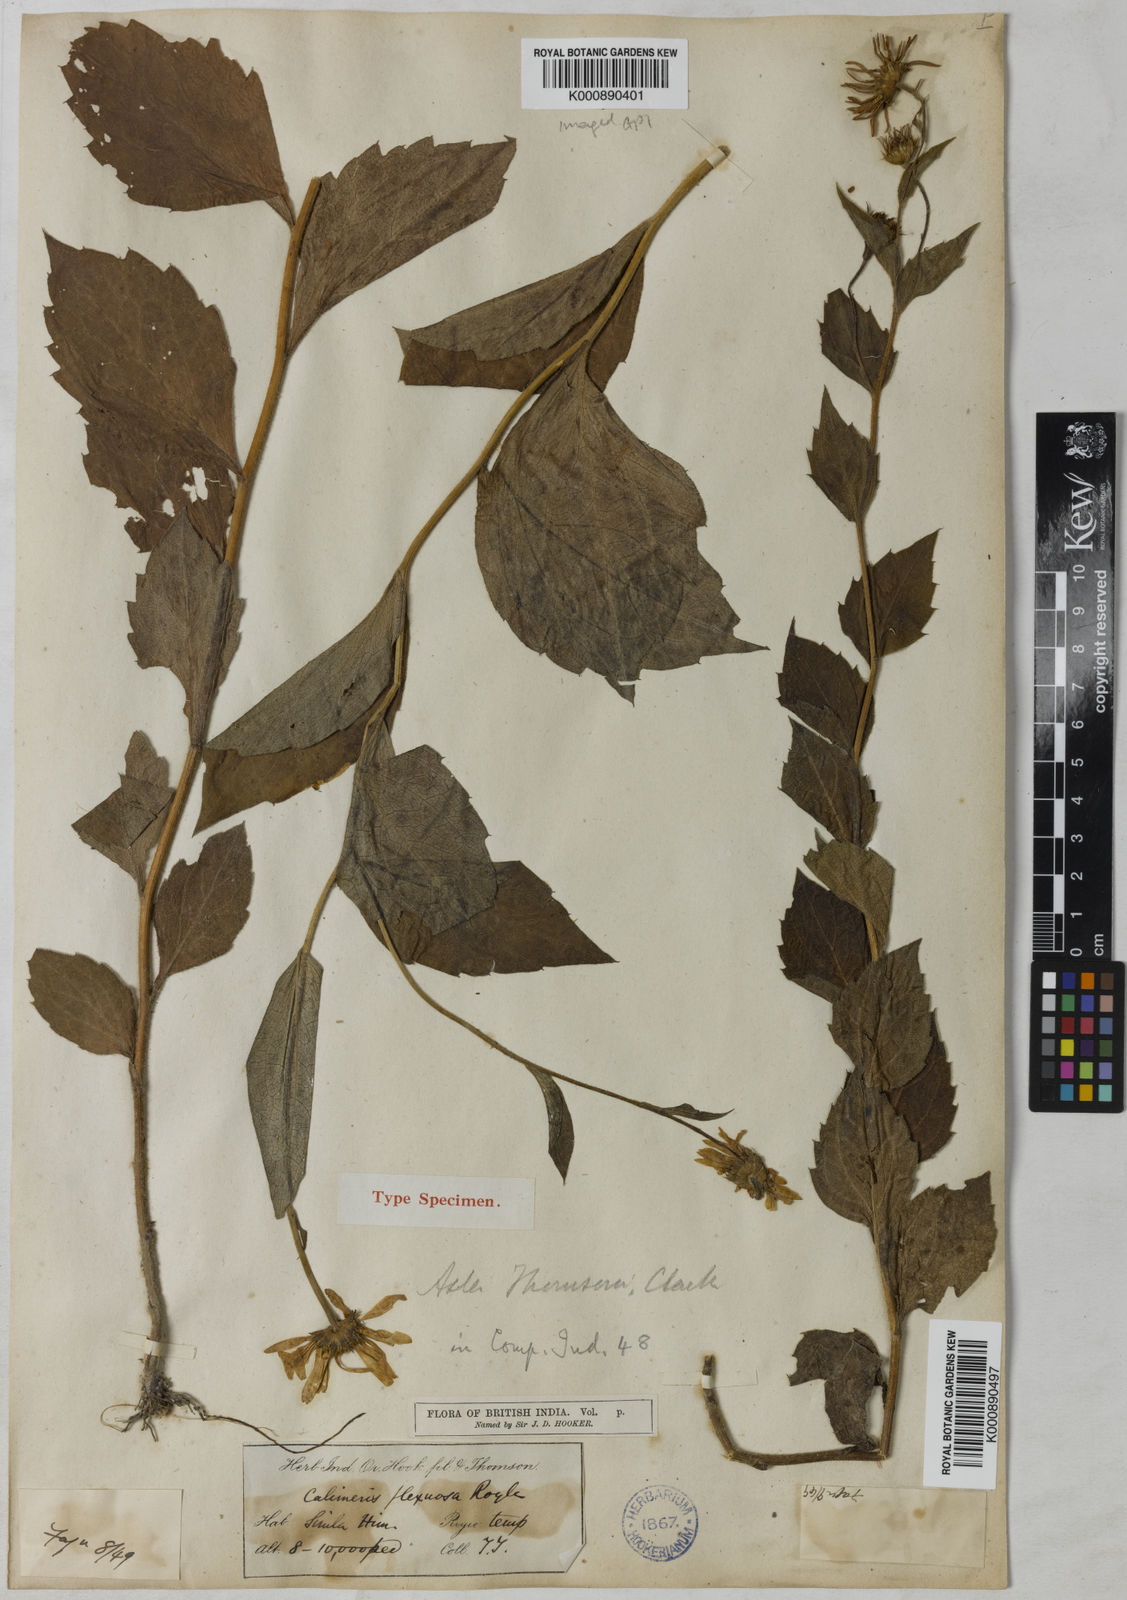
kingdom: Plantae
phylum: Tracheophyta
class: Magnoliopsida
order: Asterales
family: Asteraceae
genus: Cordiofontis
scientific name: Cordiofontis flexuosa
